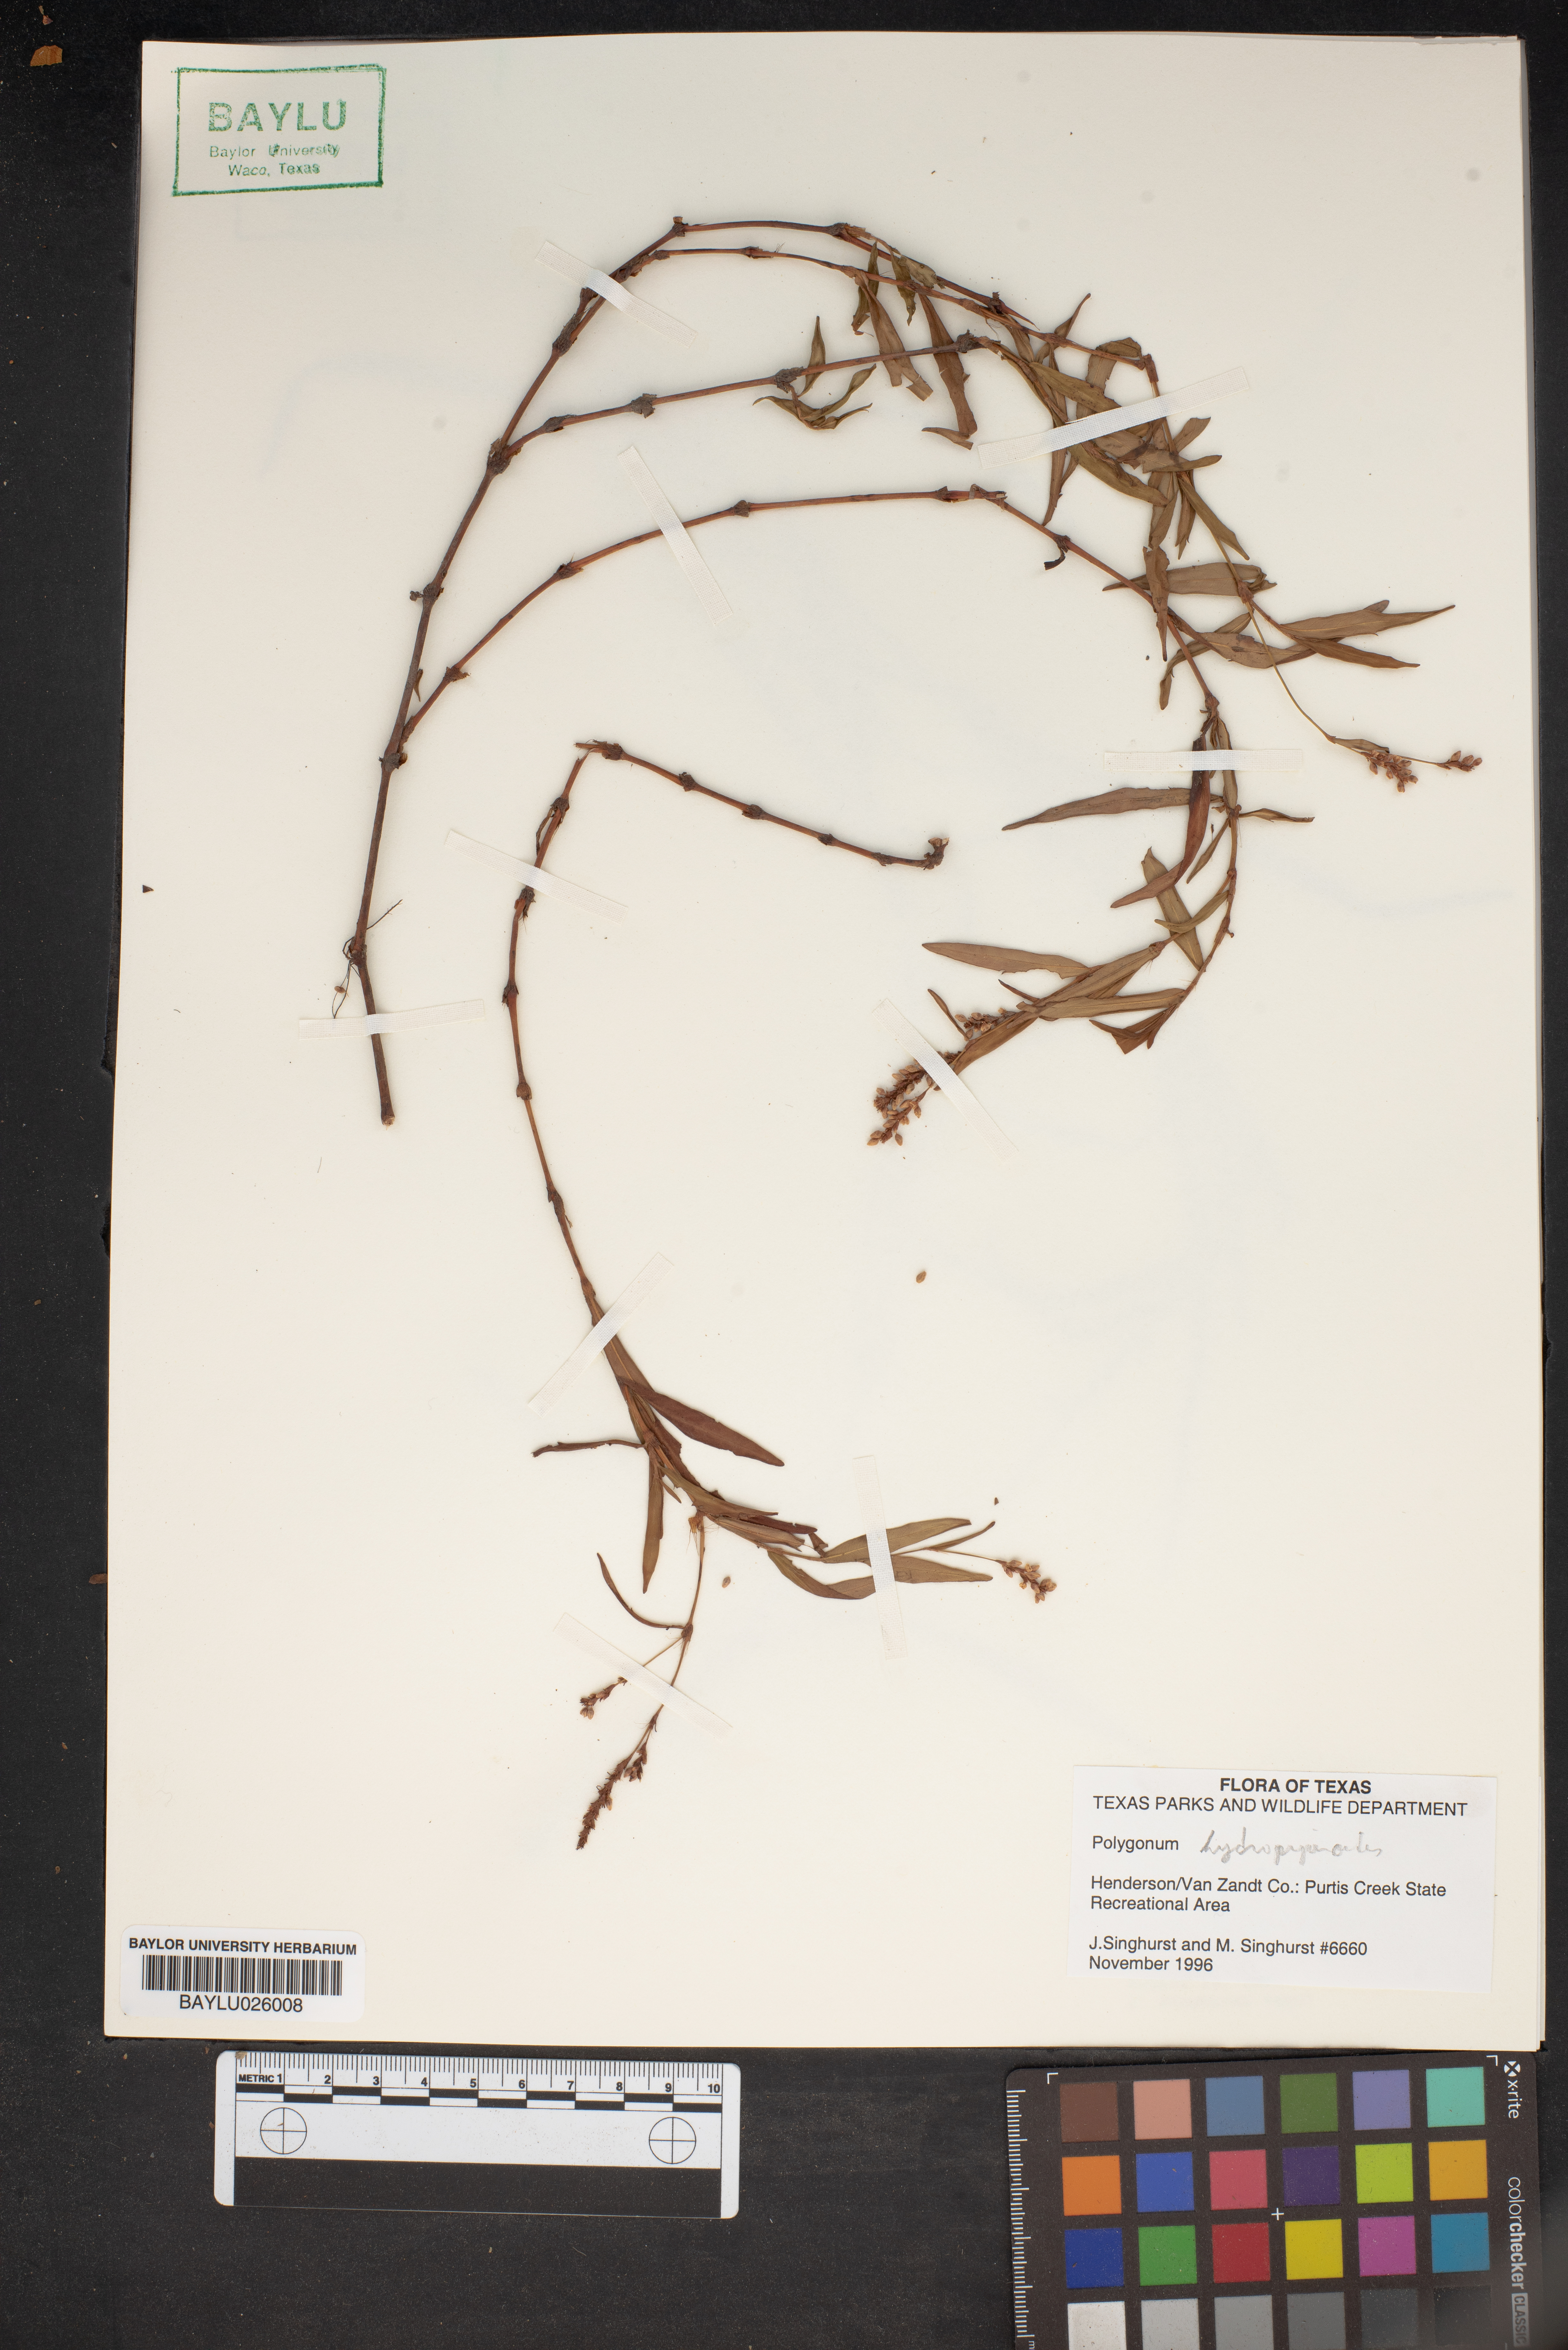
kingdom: Plantae
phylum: Tracheophyta
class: Magnoliopsida
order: Caryophyllales
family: Polygonaceae
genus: Persicaria
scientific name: Persicaria hydropiperoides
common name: Swamp smartweed
